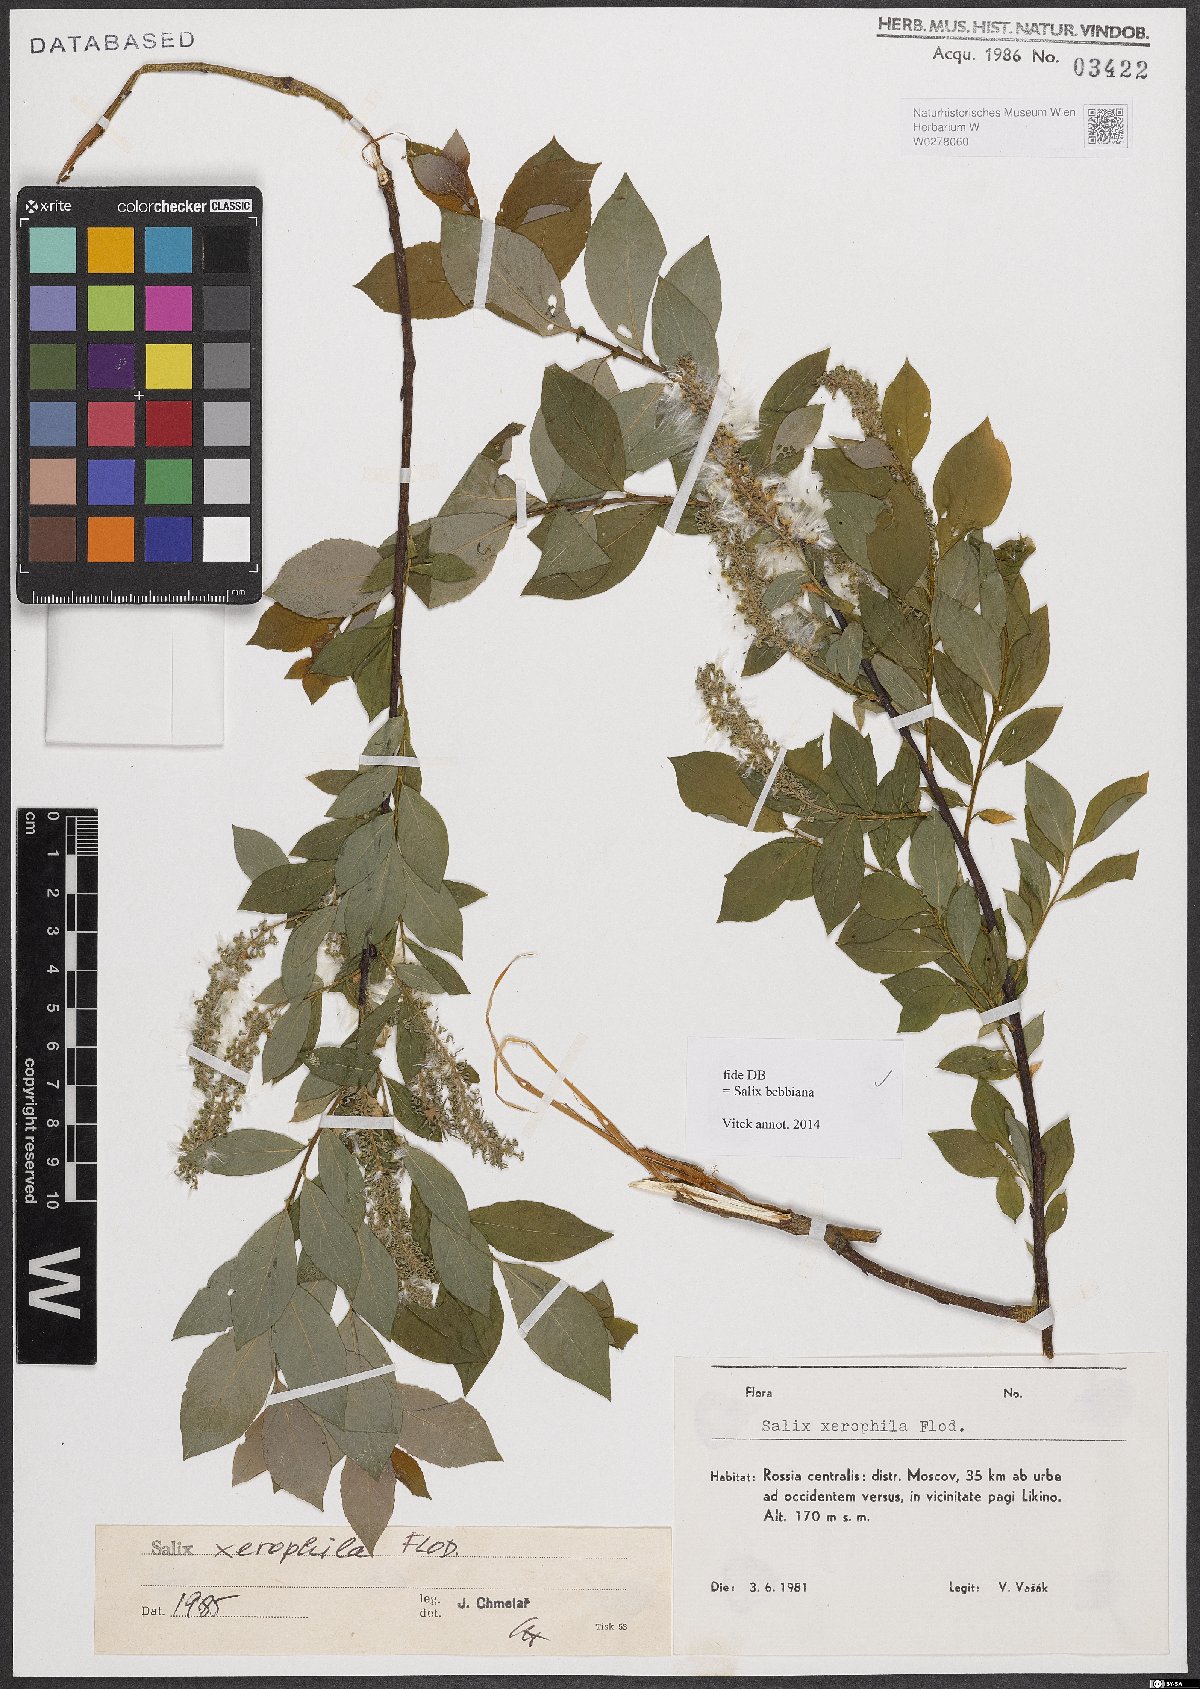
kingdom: Plantae
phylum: Tracheophyta
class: Magnoliopsida
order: Malpighiales
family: Salicaceae
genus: Salix
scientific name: Salix bebbiana
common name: Bebb's willow
